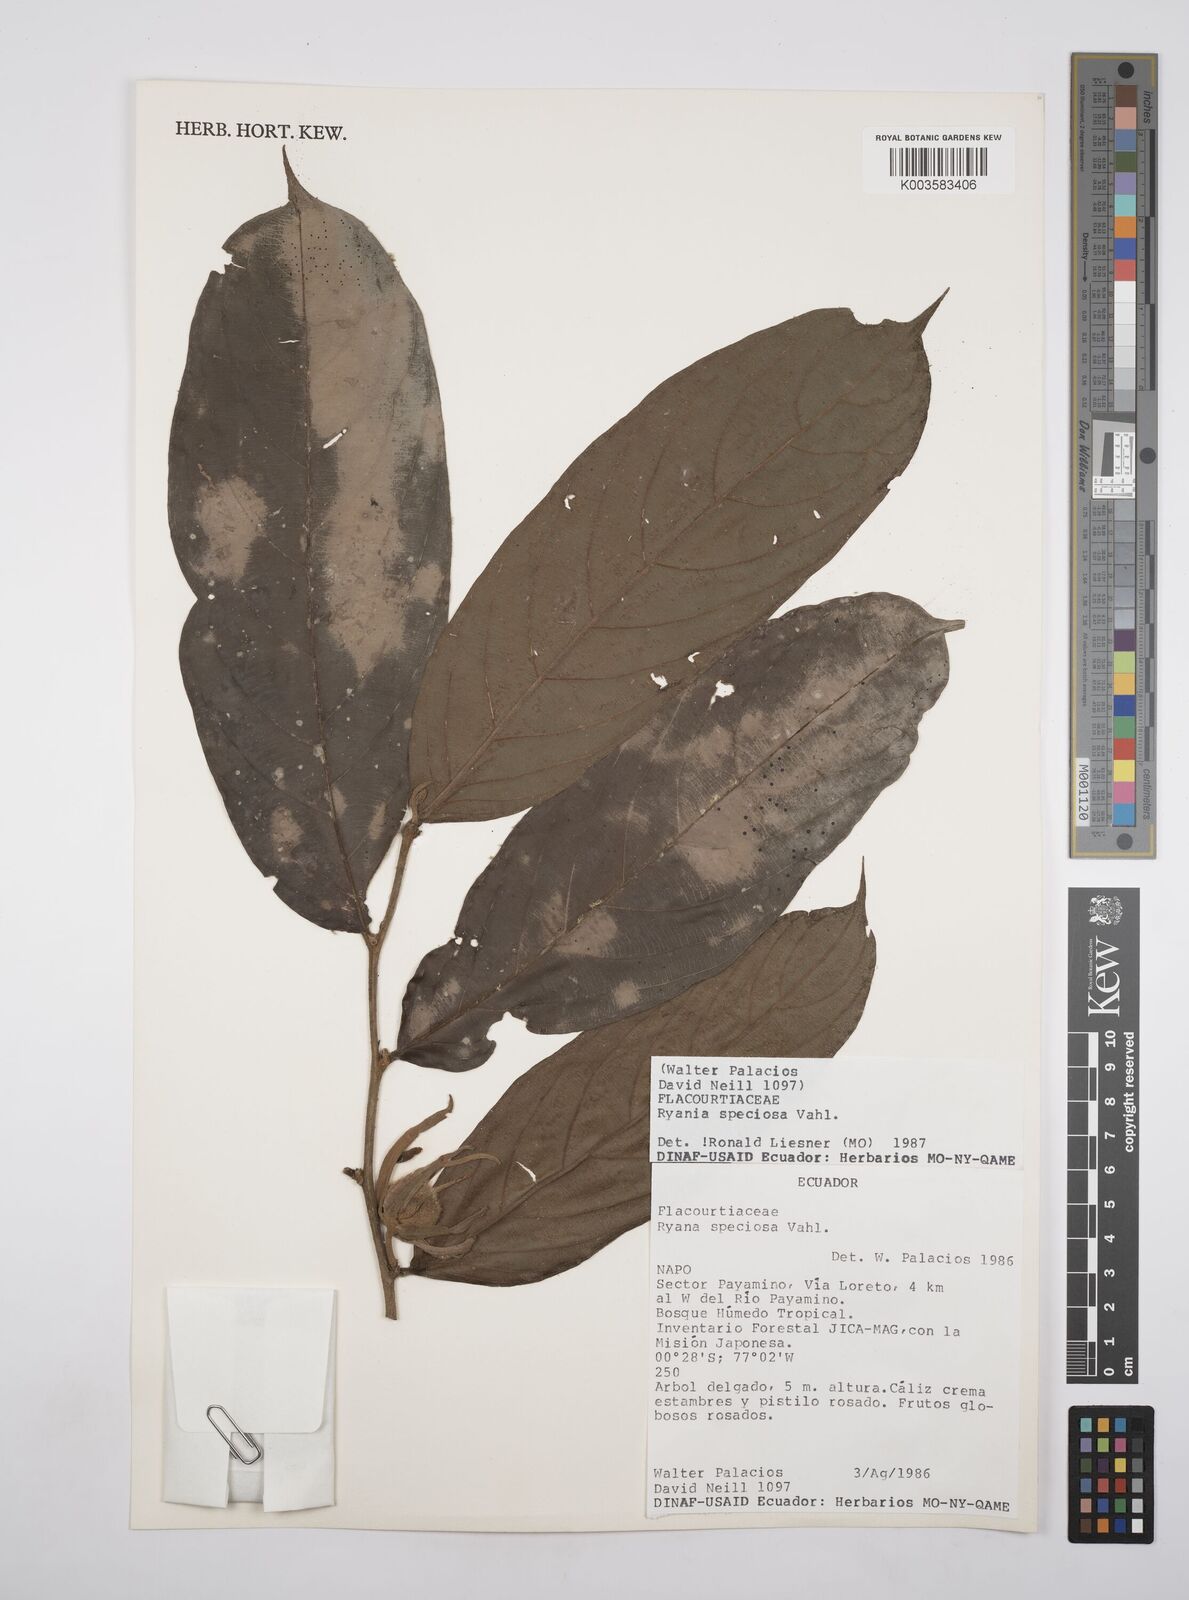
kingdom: Plantae
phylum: Tracheophyta
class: Magnoliopsida
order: Malpighiales
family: Salicaceae
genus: Ryania
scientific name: Ryania speciosa
